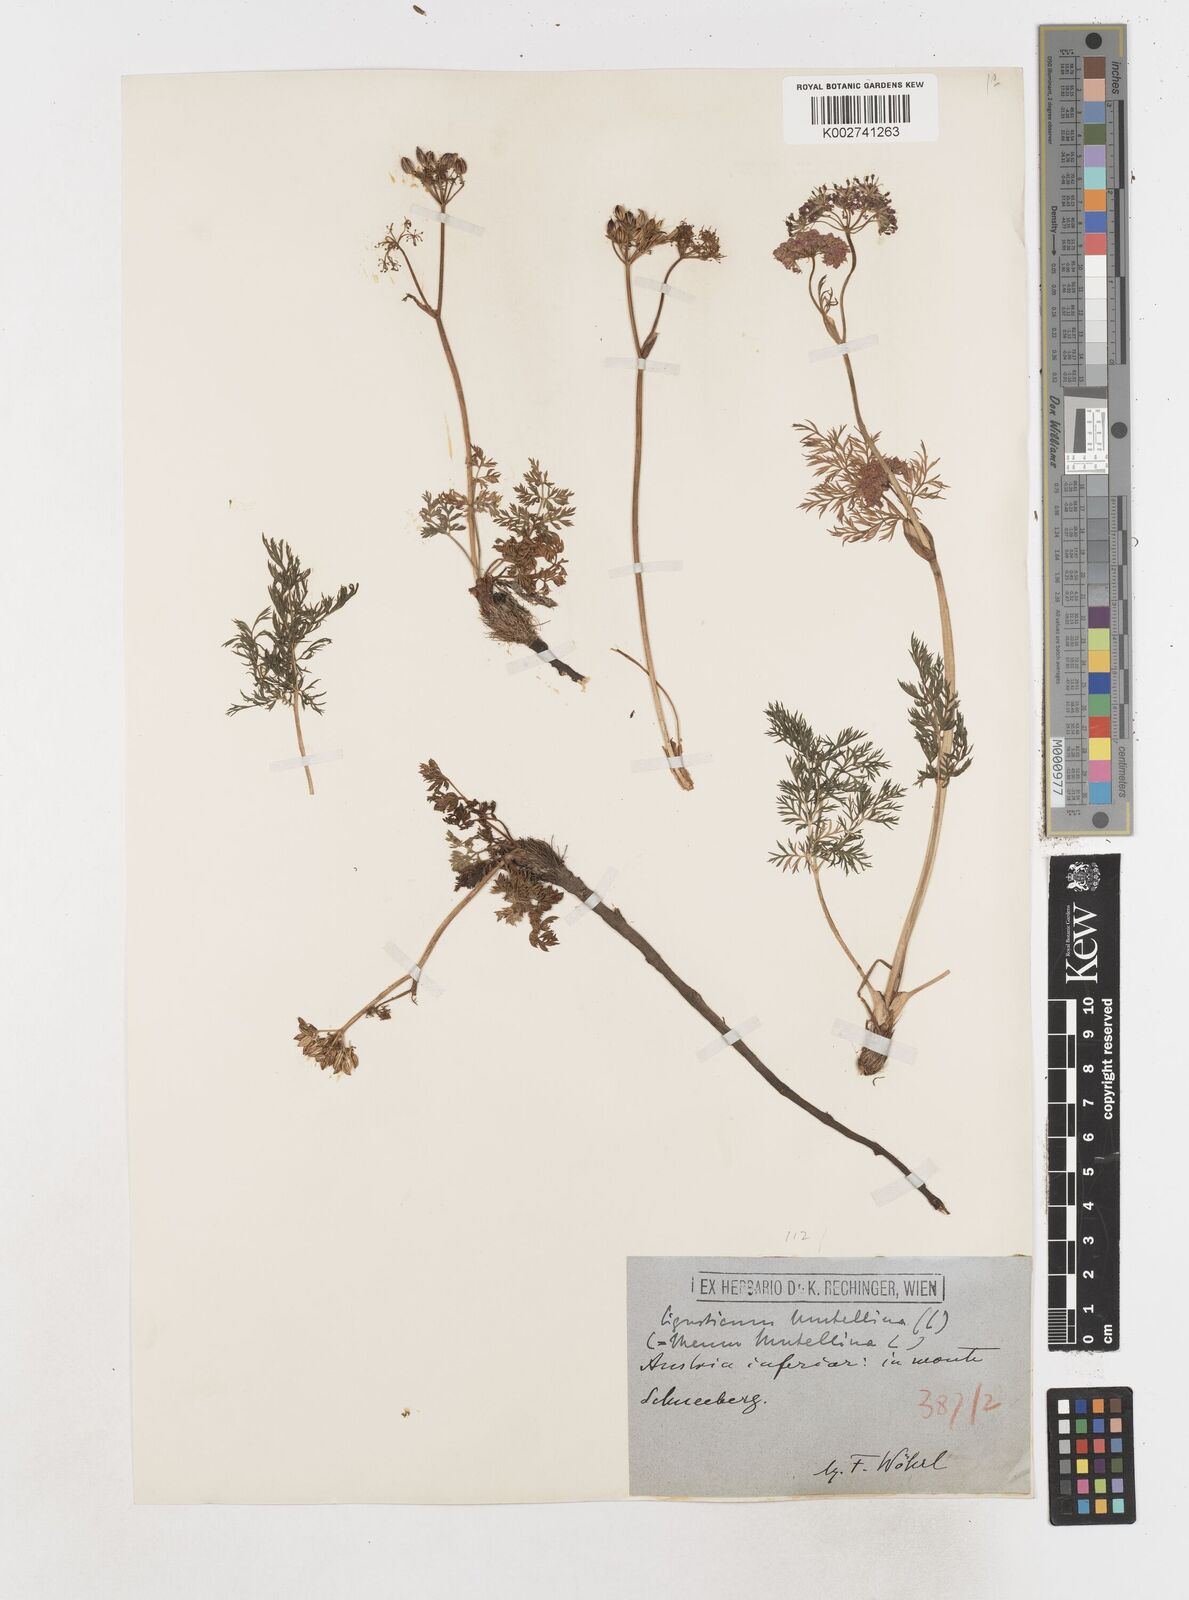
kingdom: Plantae
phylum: Tracheophyta
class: Magnoliopsida
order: Apiales
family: Apiaceae
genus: Mutellina
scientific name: Mutellina adonidifolia
